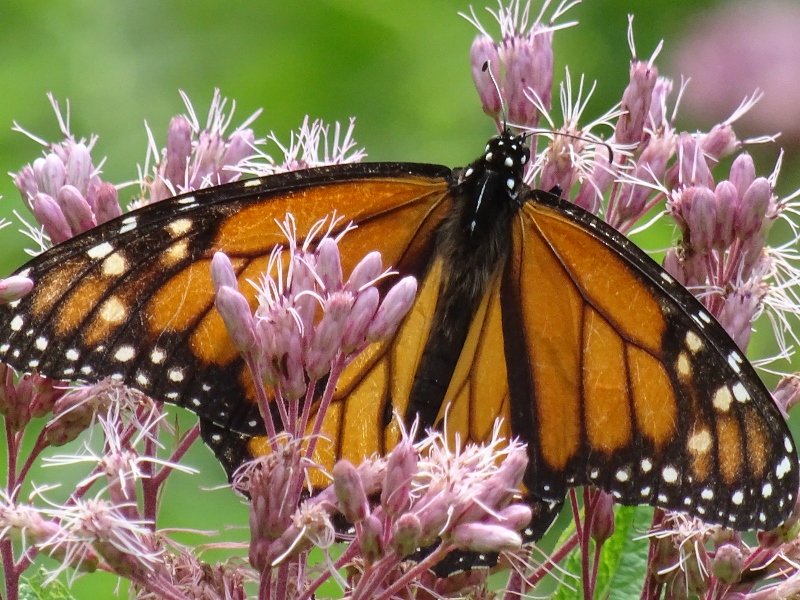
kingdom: Animalia
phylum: Arthropoda
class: Insecta
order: Lepidoptera
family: Nymphalidae
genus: Danaus
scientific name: Danaus plexippus
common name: Monarch
